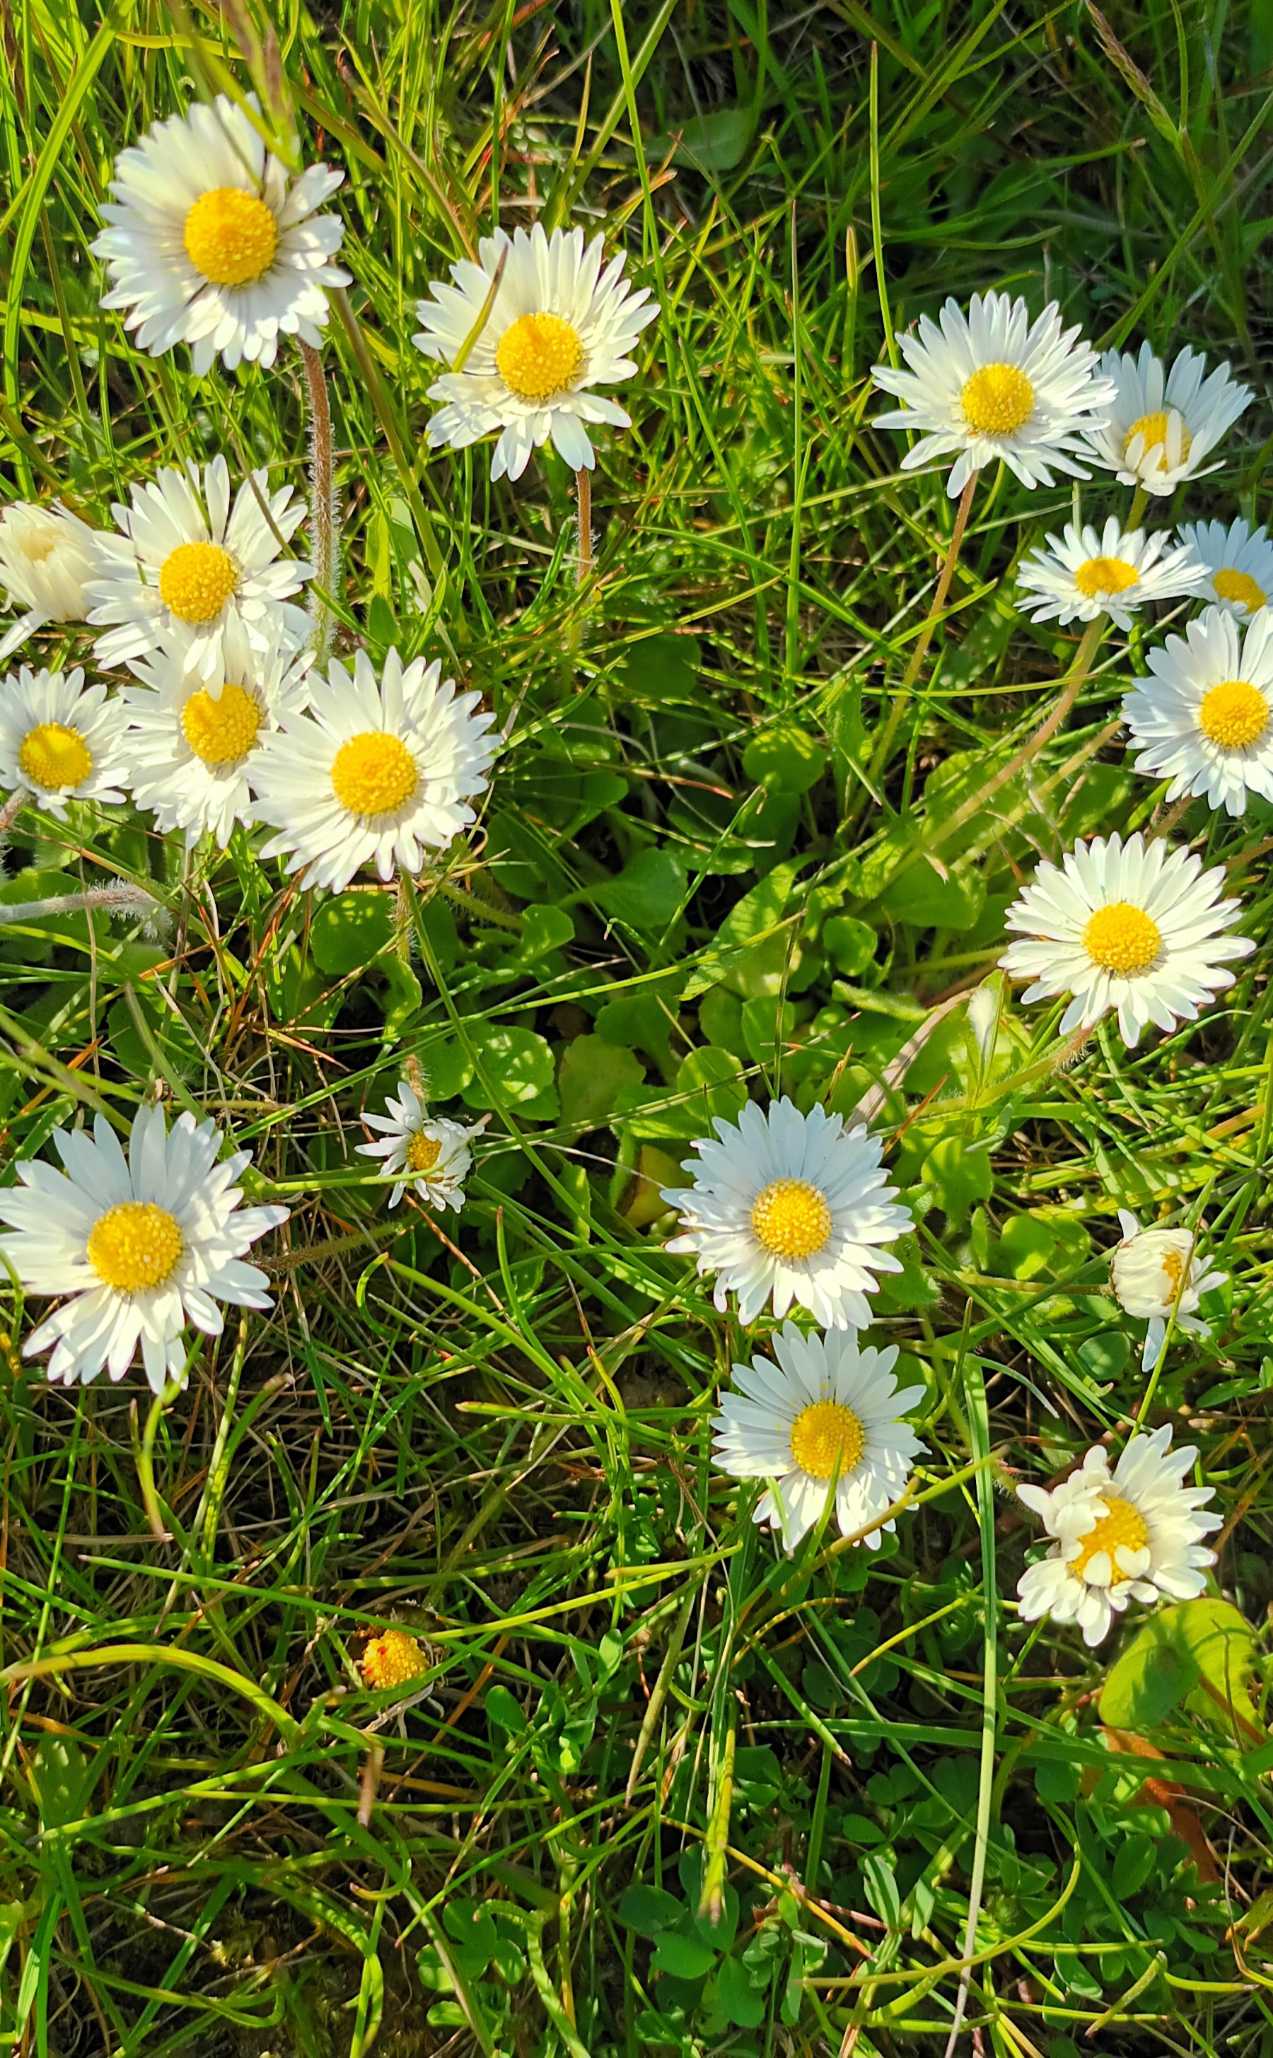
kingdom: Plantae
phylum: Tracheophyta
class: Magnoliopsida
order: Asterales
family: Asteraceae
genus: Bellis
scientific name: Bellis perennis
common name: Tusindfryd
